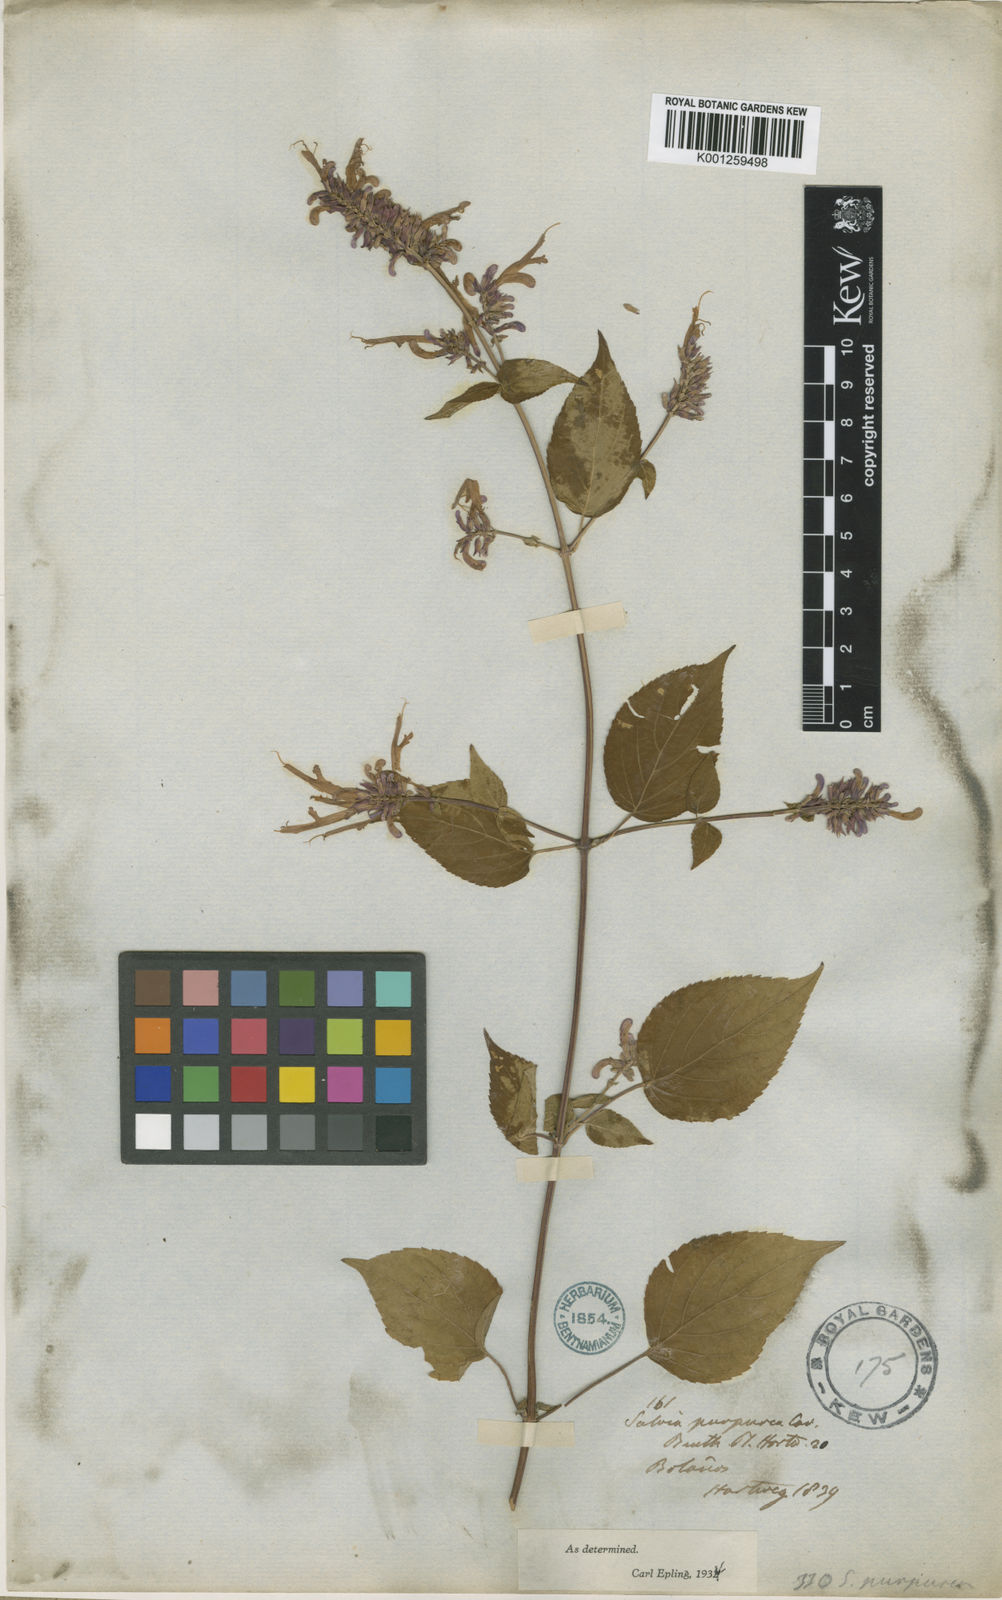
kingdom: Plantae
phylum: Tracheophyta
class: Magnoliopsida
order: Lamiales
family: Lamiaceae
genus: Salvia
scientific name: Salvia purpurea
